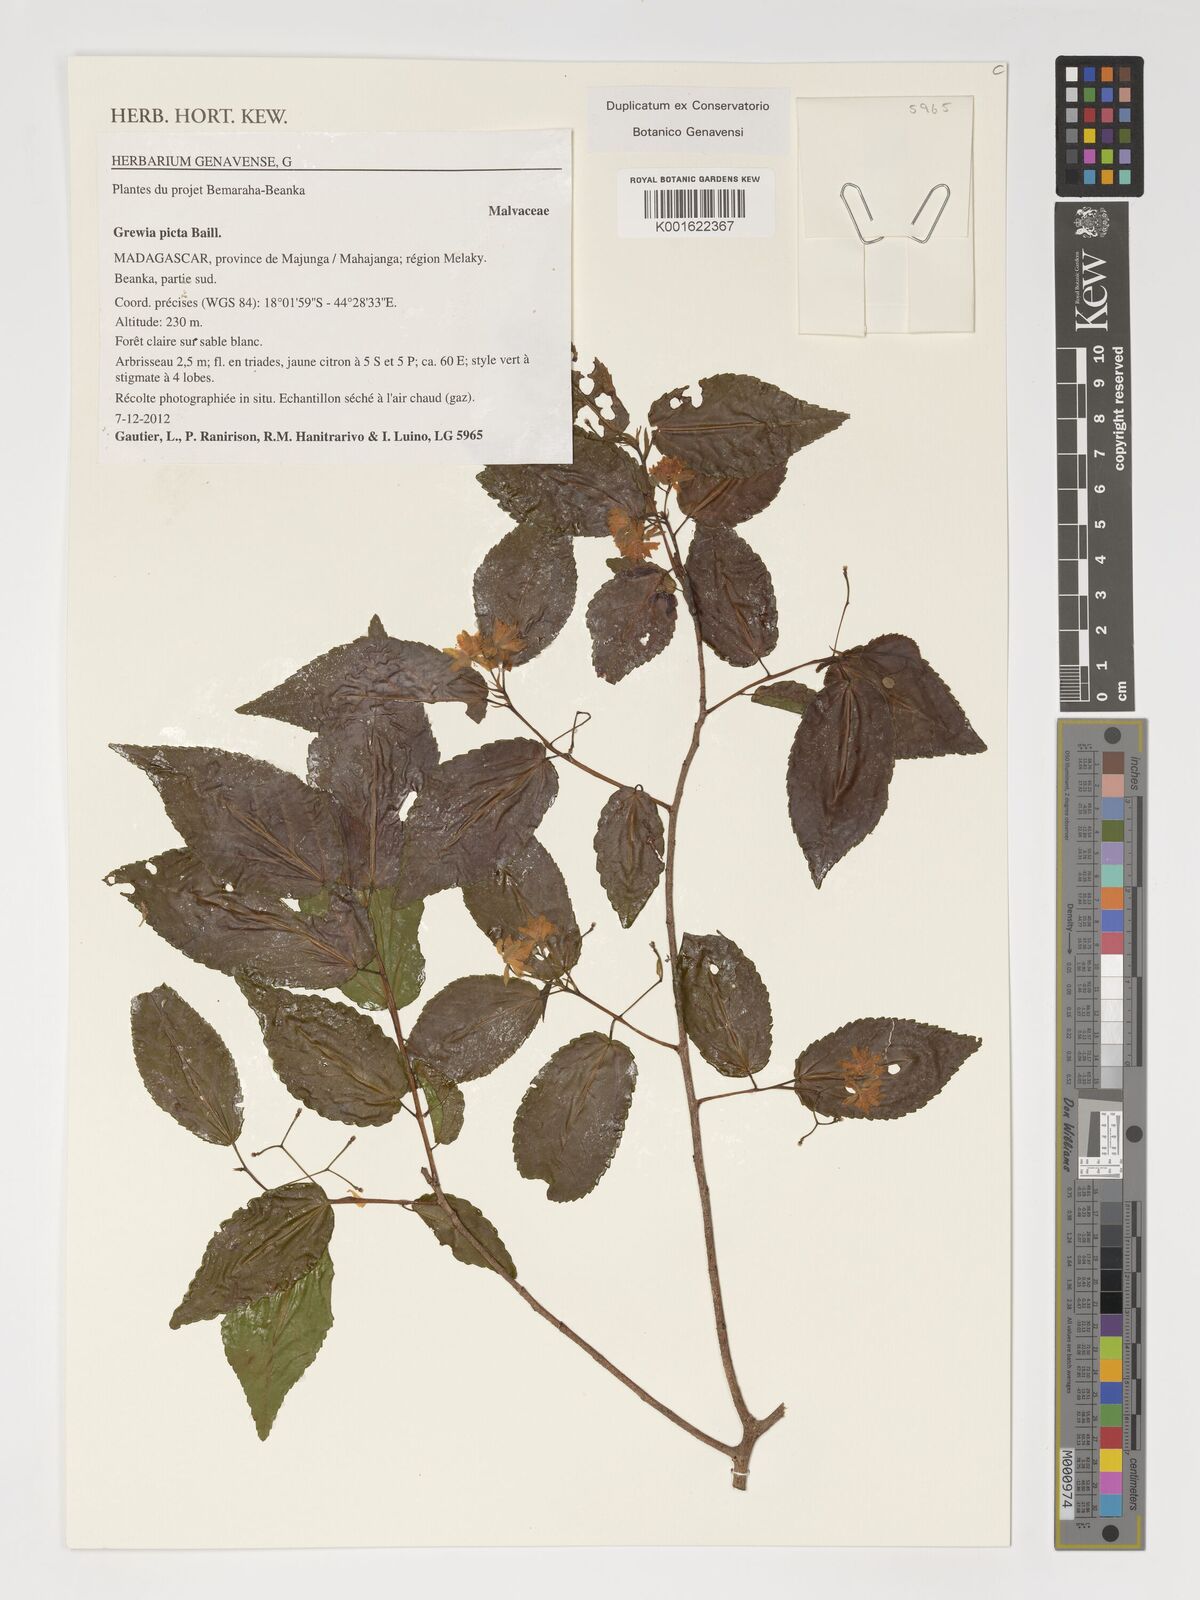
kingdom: Plantae
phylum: Tracheophyta
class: Magnoliopsida
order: Malvales
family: Malvaceae
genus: Grewia
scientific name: Grewia picta
